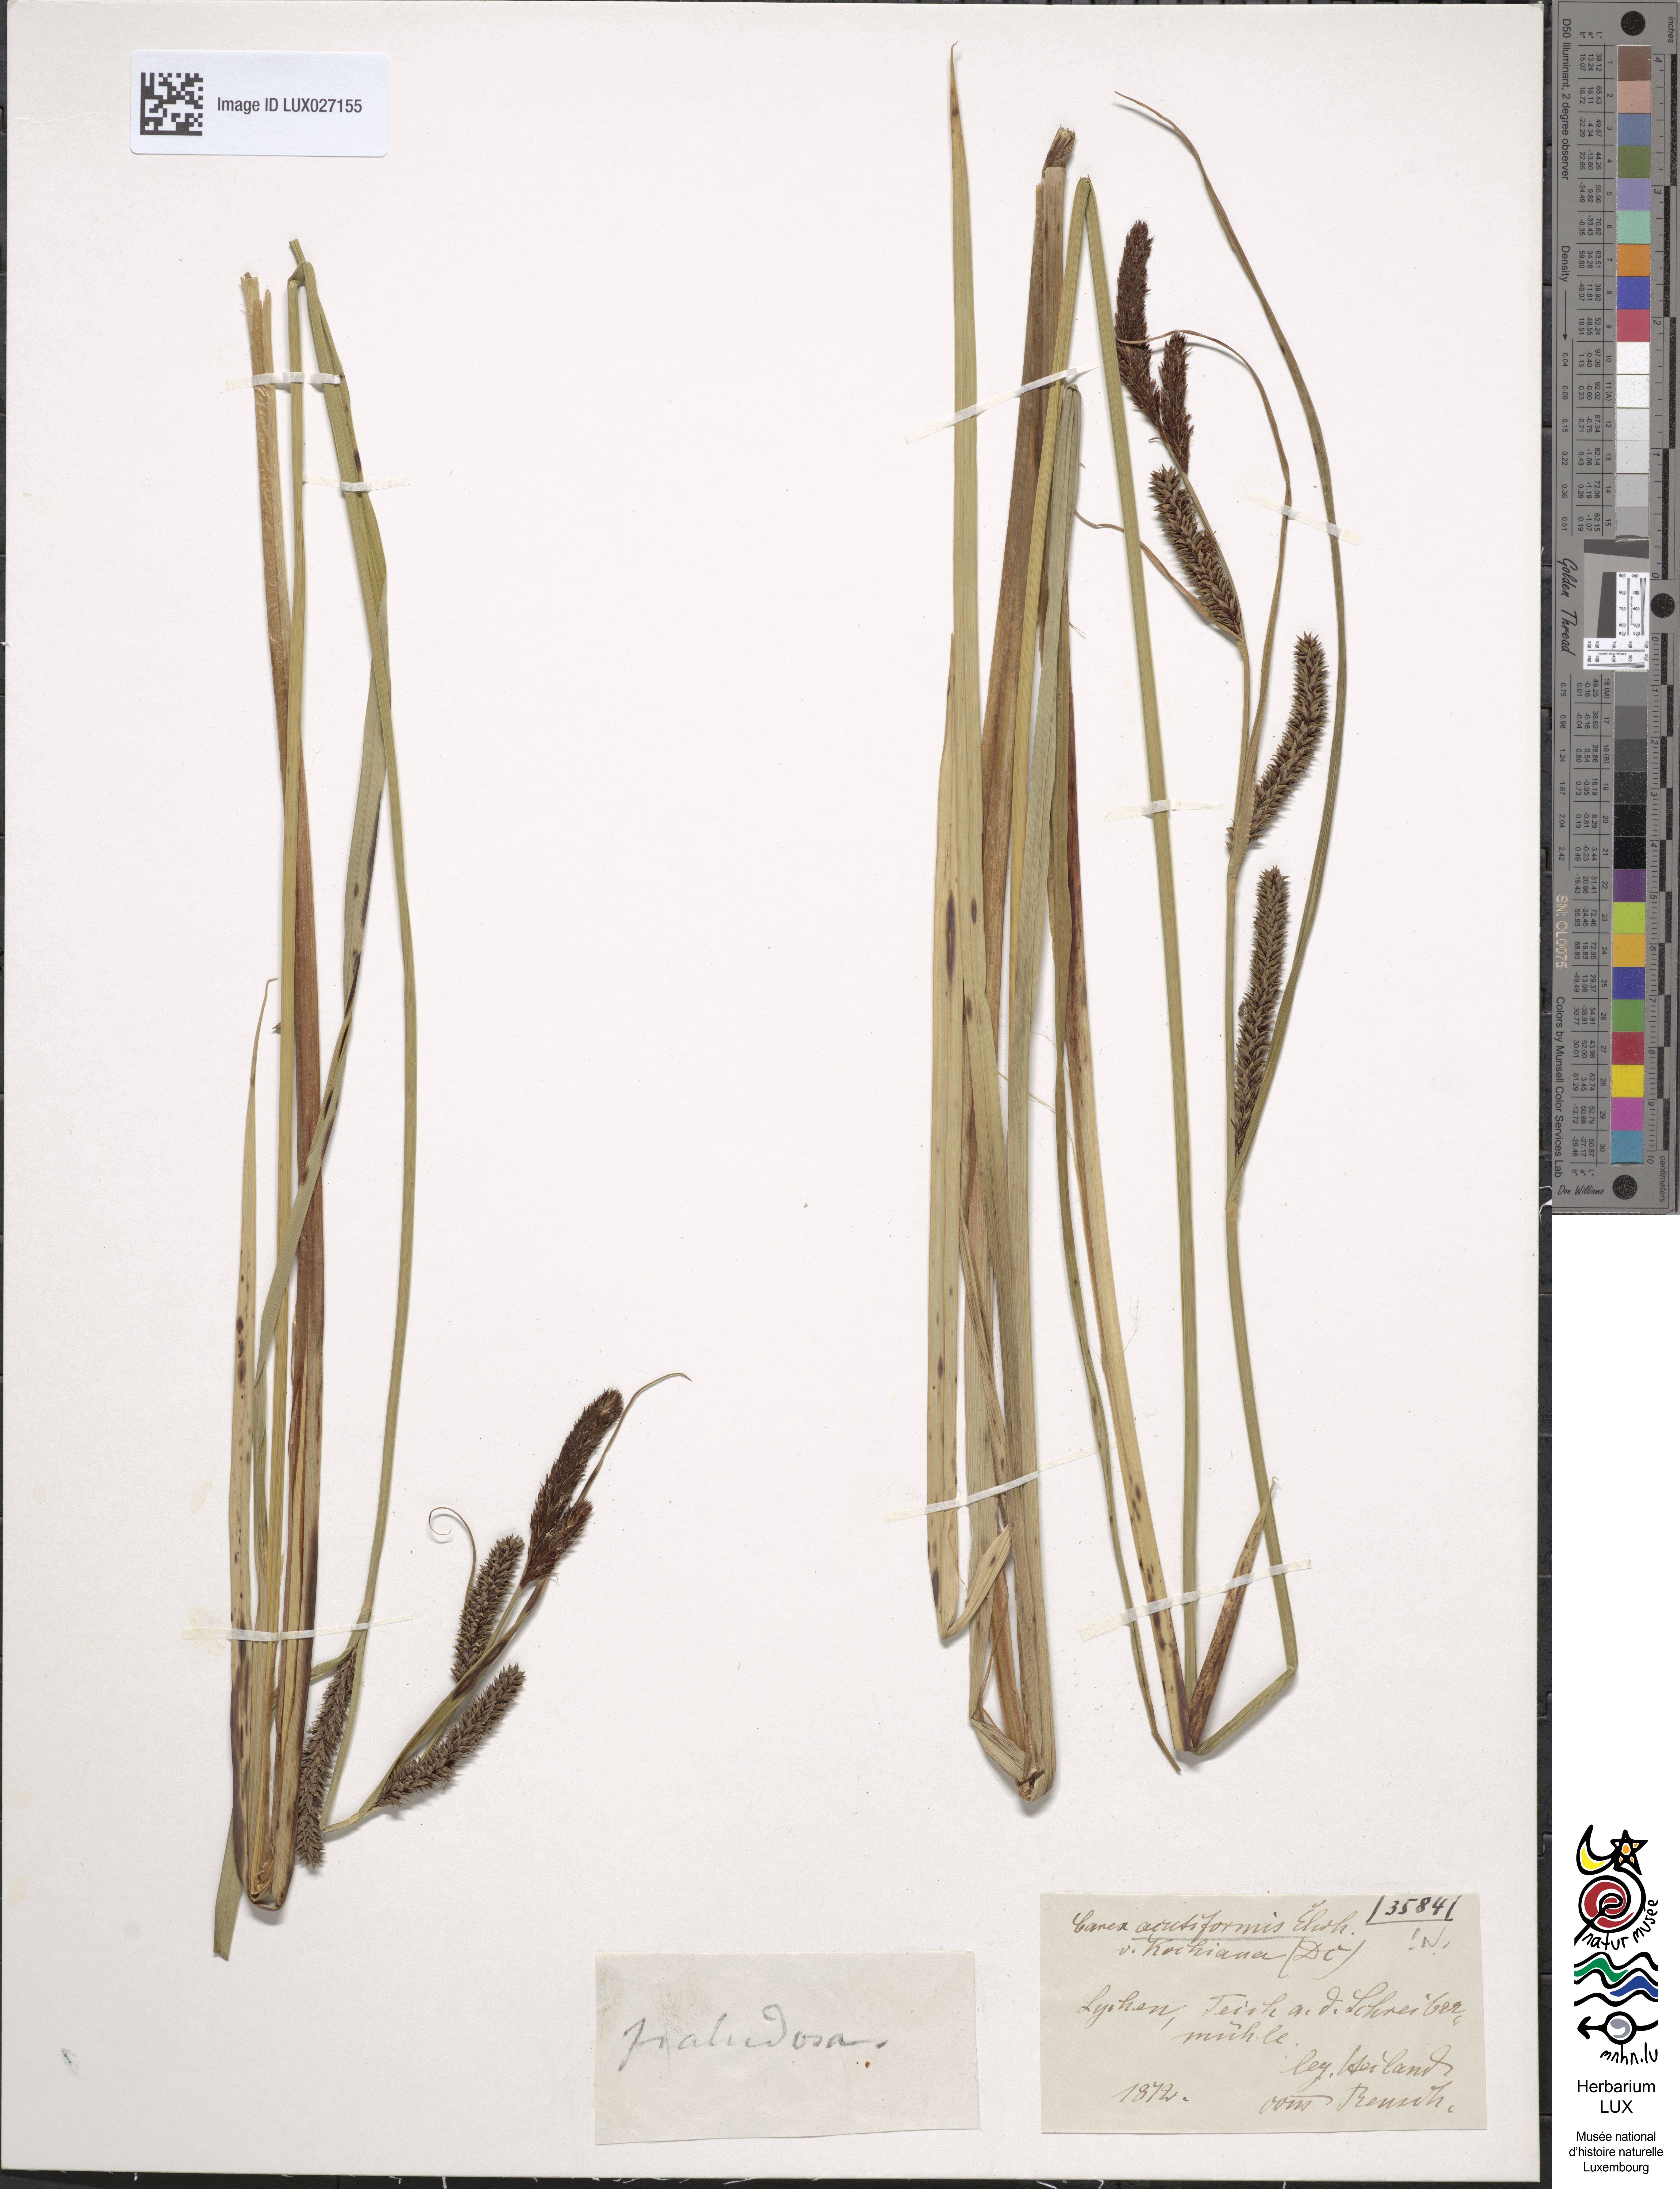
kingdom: Plantae
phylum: Tracheophyta
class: Liliopsida
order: Poales
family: Cyperaceae
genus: Carex
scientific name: Carex acutiformis
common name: Lesser pond-sedge
